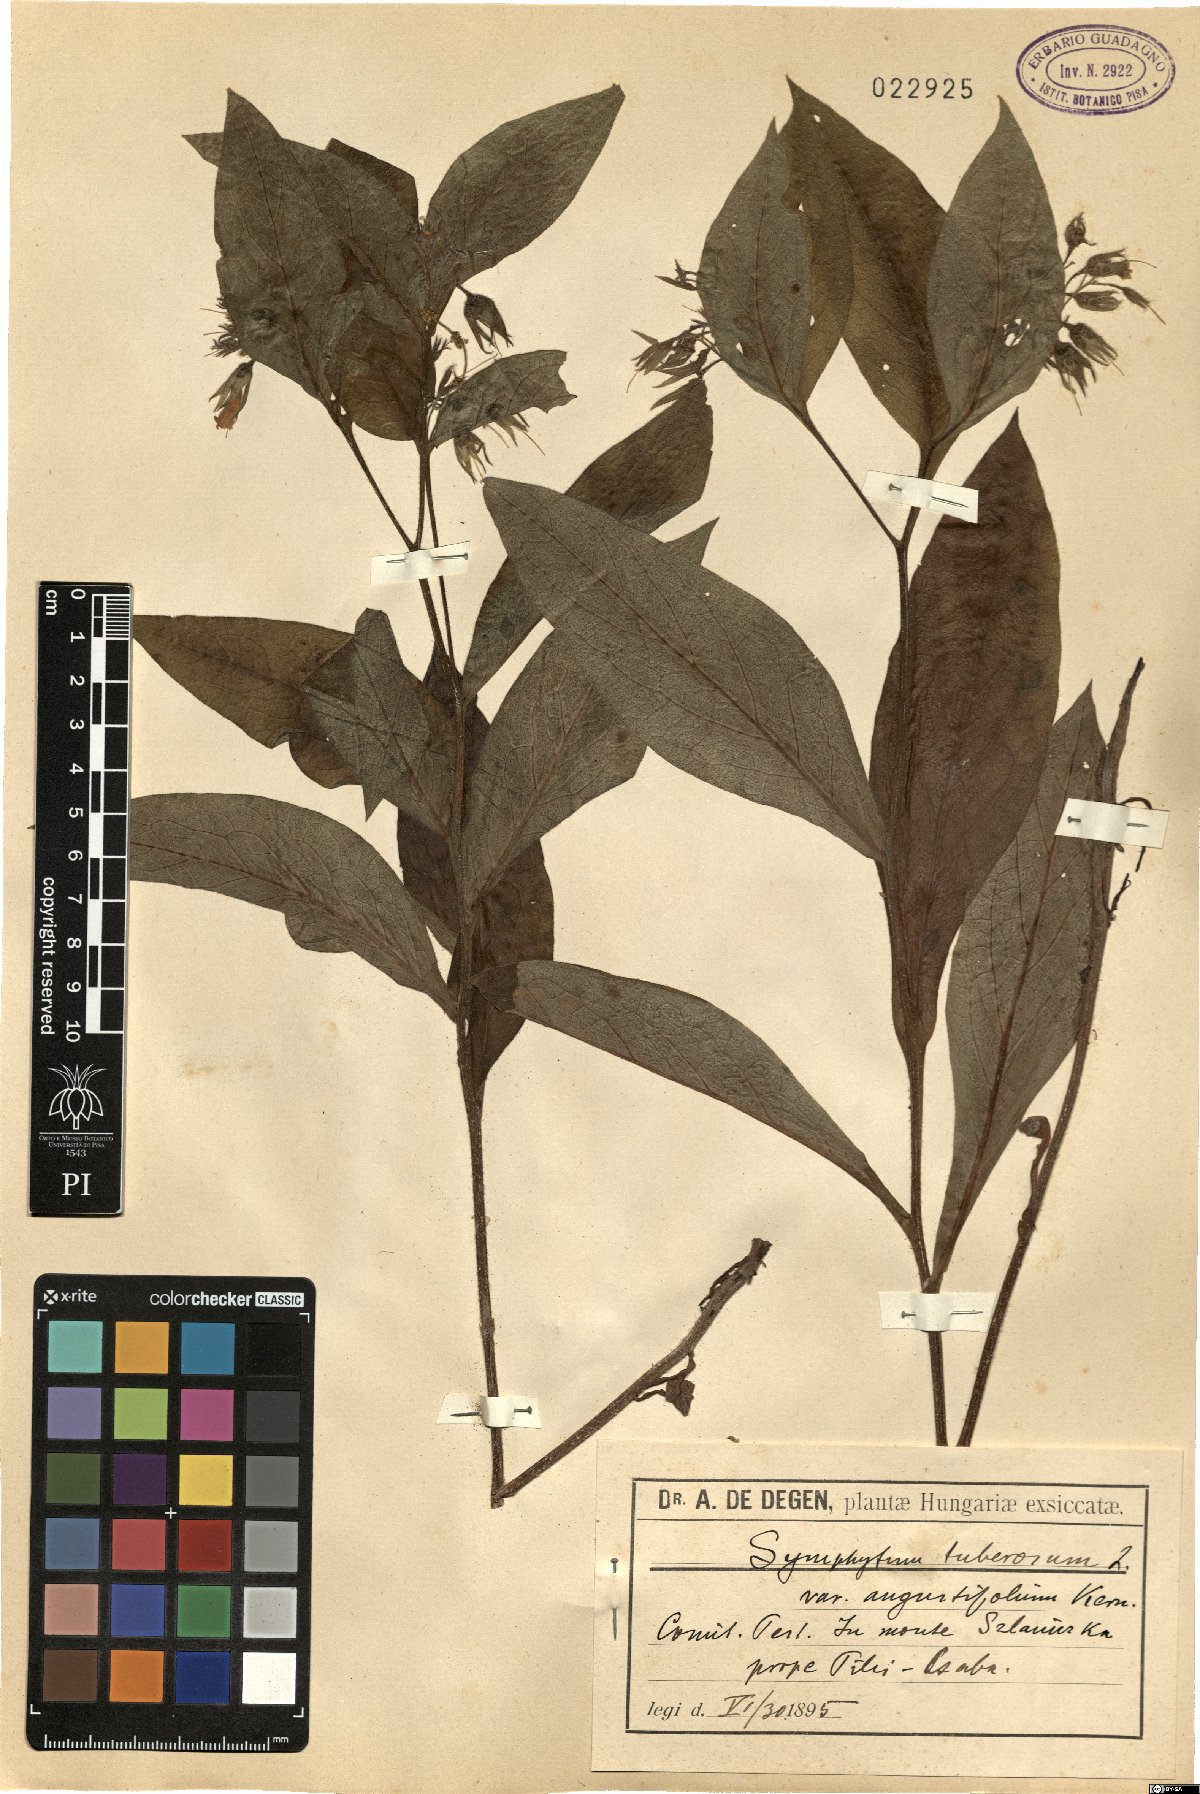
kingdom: Plantae
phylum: Tracheophyta
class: Magnoliopsida
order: Boraginales
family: Boraginaceae
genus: Symphytum
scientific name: Symphytum tuberosum
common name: Tuberous comfrey
